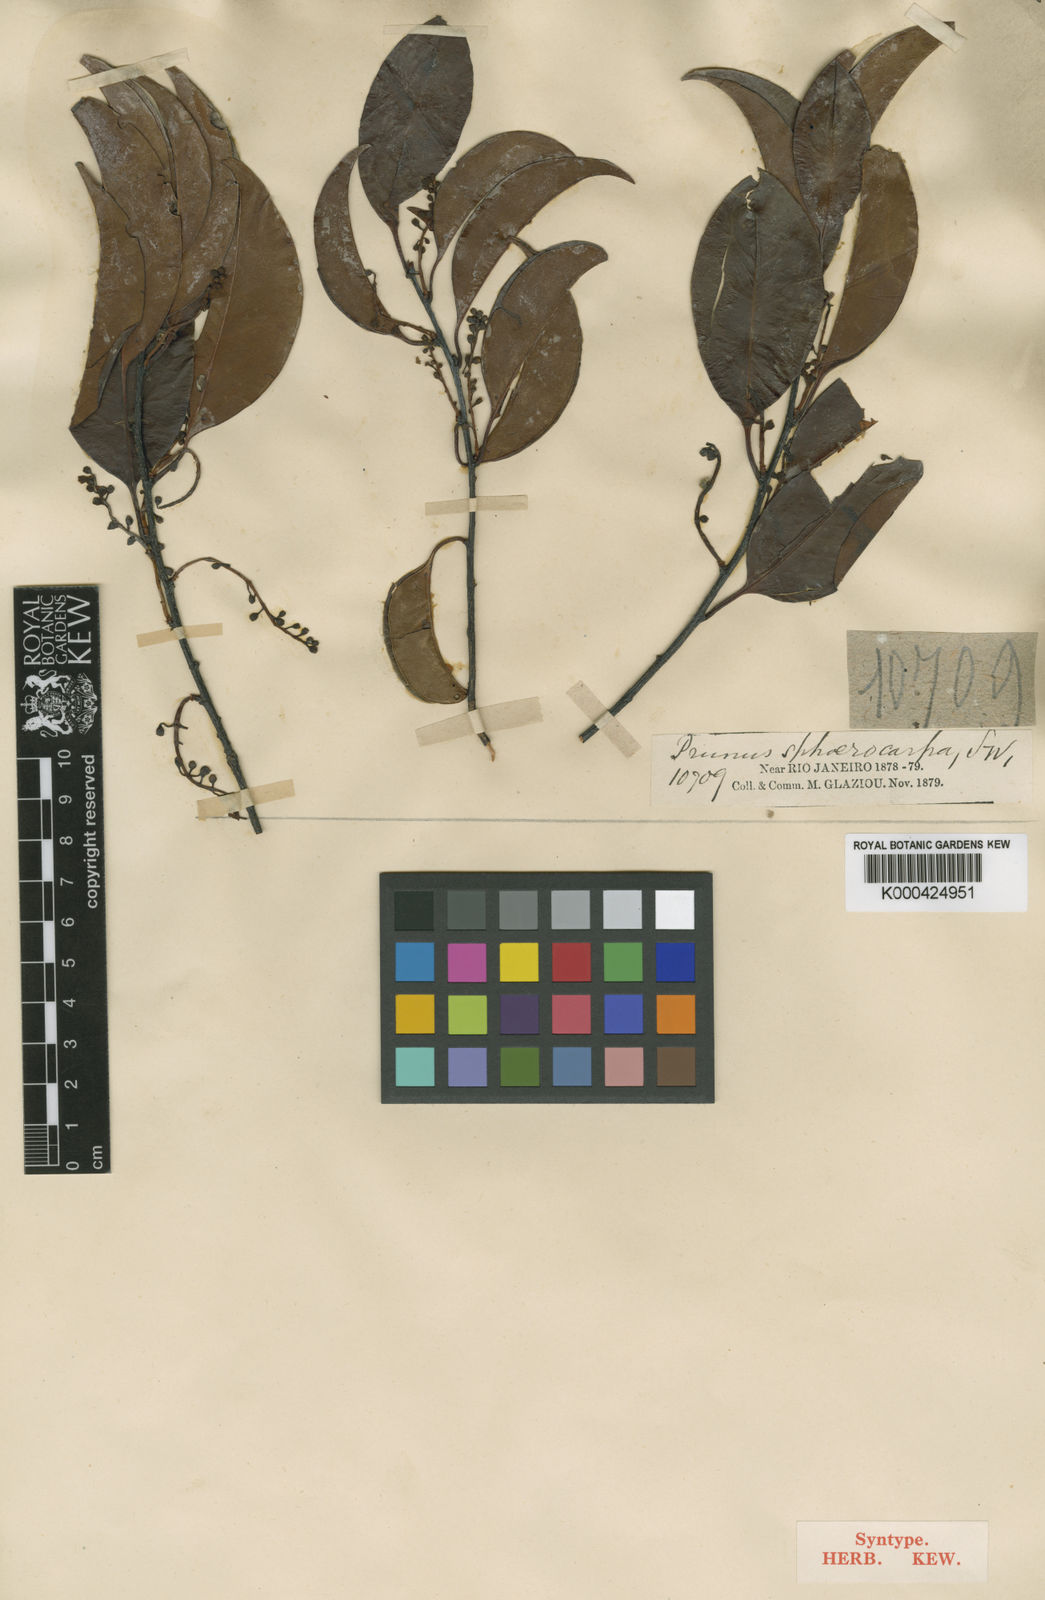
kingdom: Plantae
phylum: Tracheophyta
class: Magnoliopsida
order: Rosales
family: Rosaceae
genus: Prunus
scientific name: Prunus myrtifolia
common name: West indies cherry
